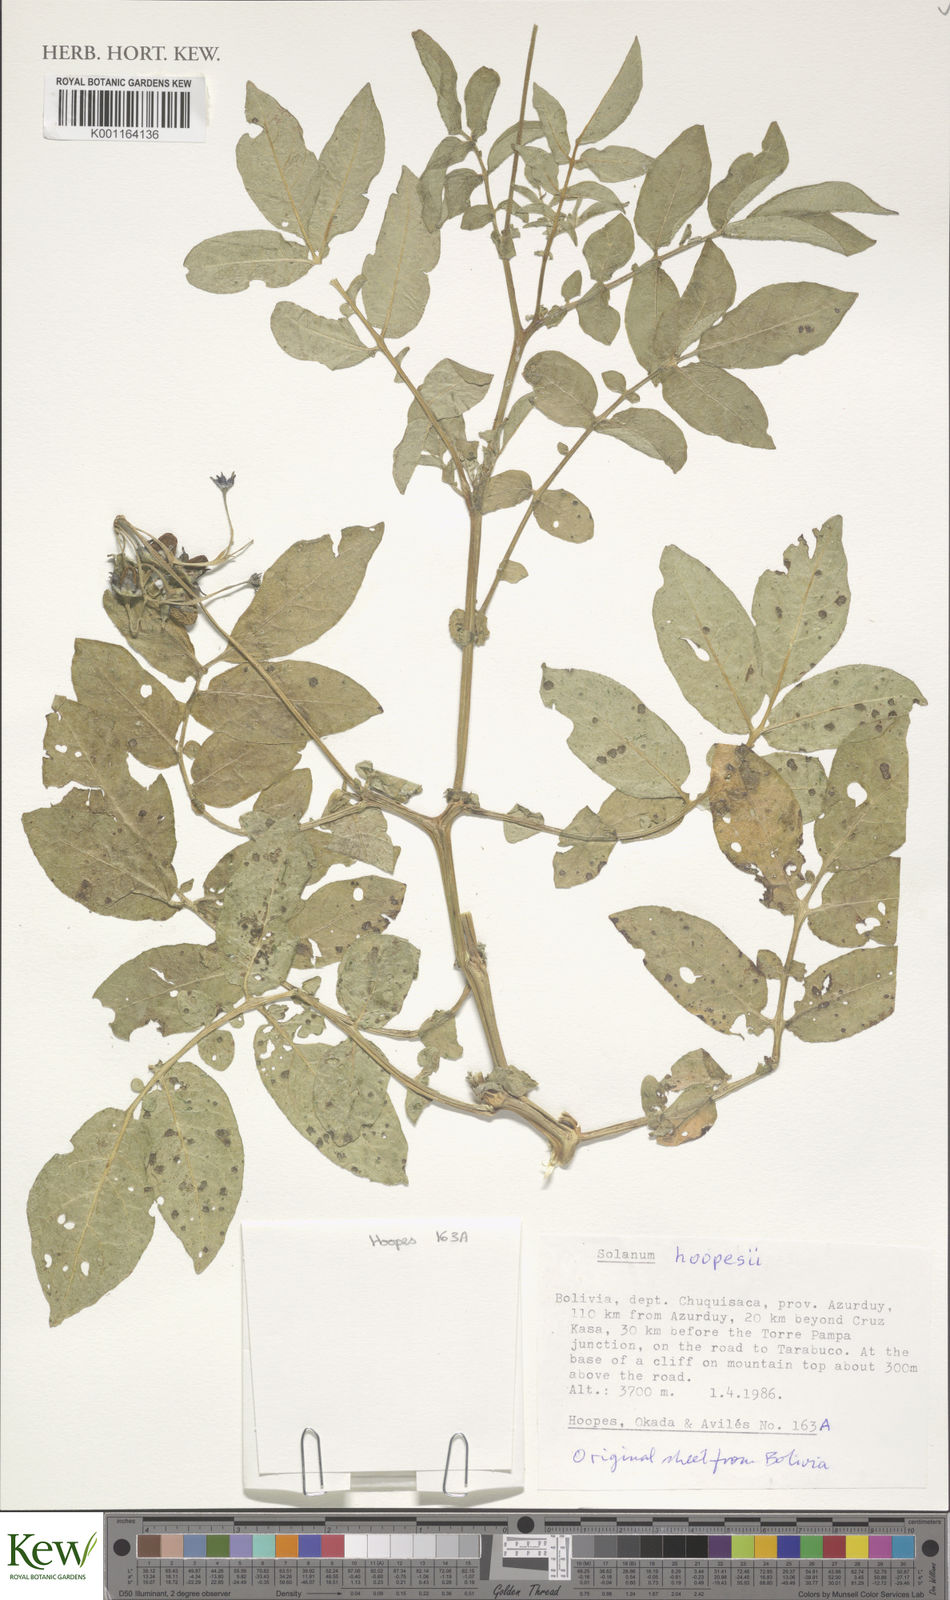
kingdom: Plantae
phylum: Tracheophyta
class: Magnoliopsida
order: Solanales
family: Solanaceae
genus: Solanum
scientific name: Solanum brevicaule
